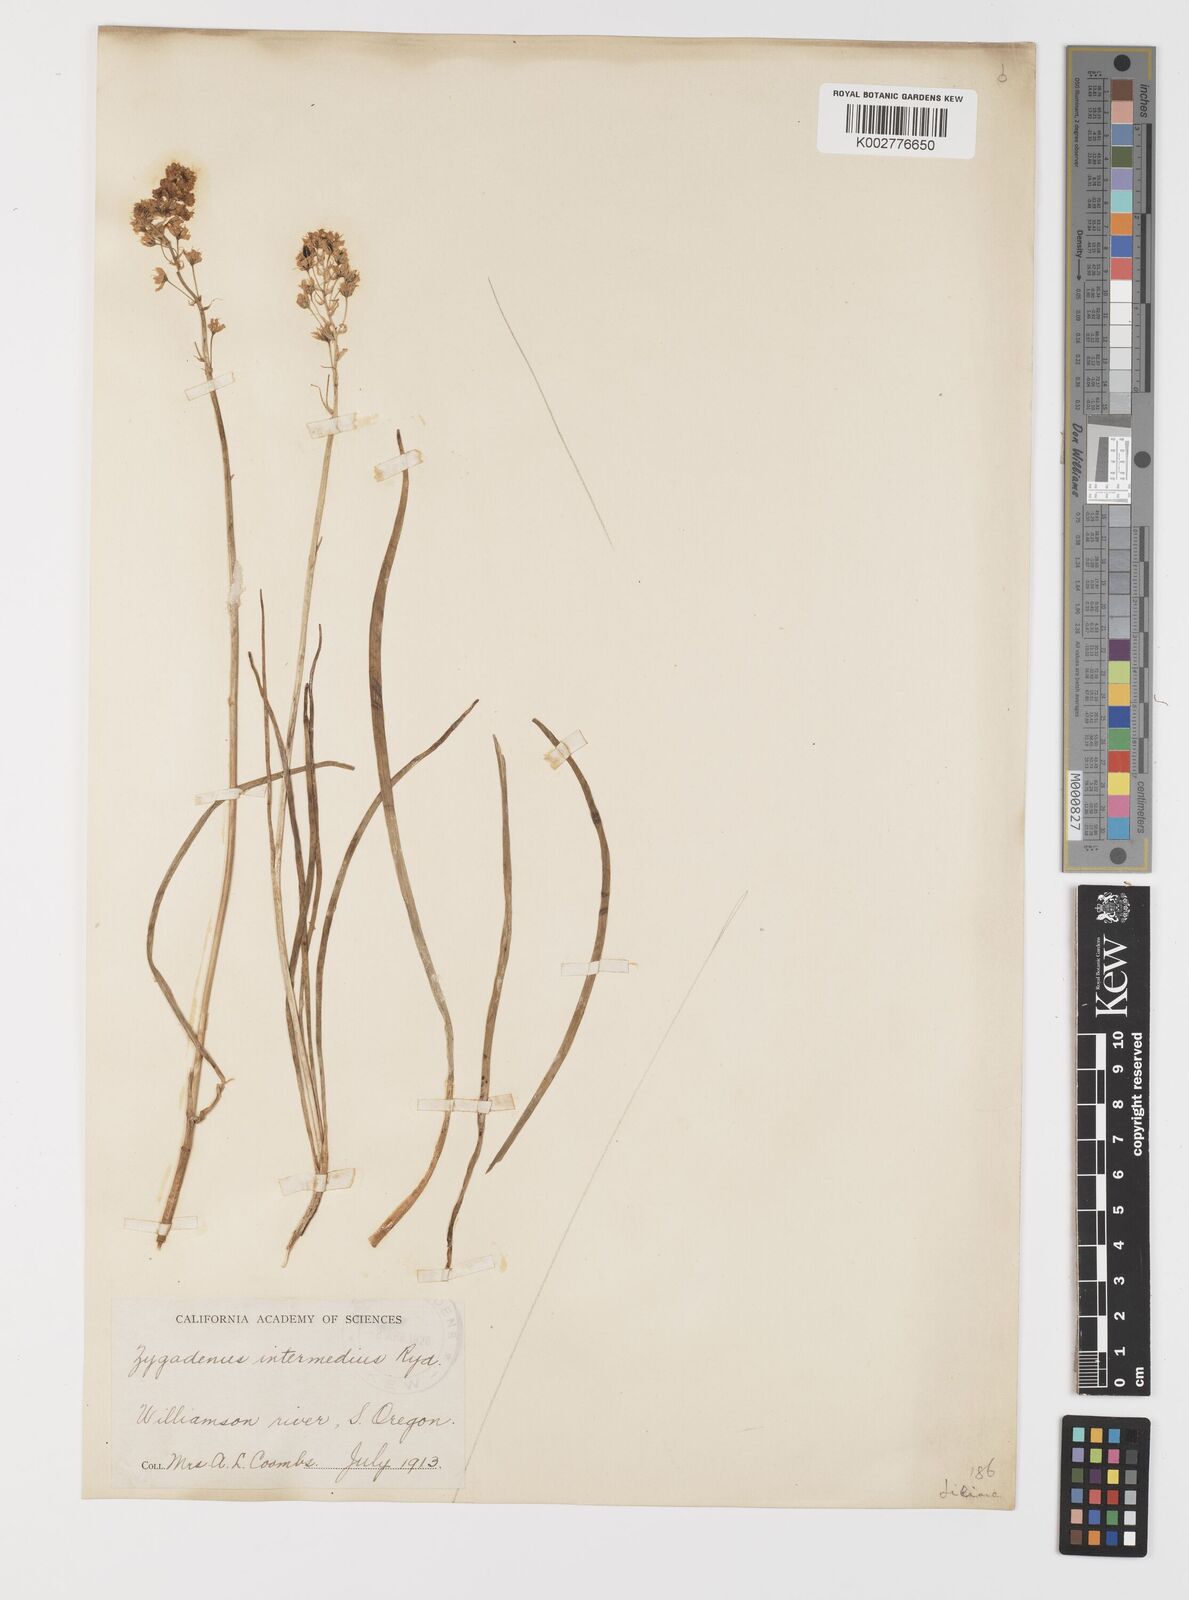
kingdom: Plantae
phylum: Tracheophyta
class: Liliopsida
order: Liliales
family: Melanthiaceae
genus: Toxicoscordion
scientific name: Toxicoscordion venenosum
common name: Meadow death camas
